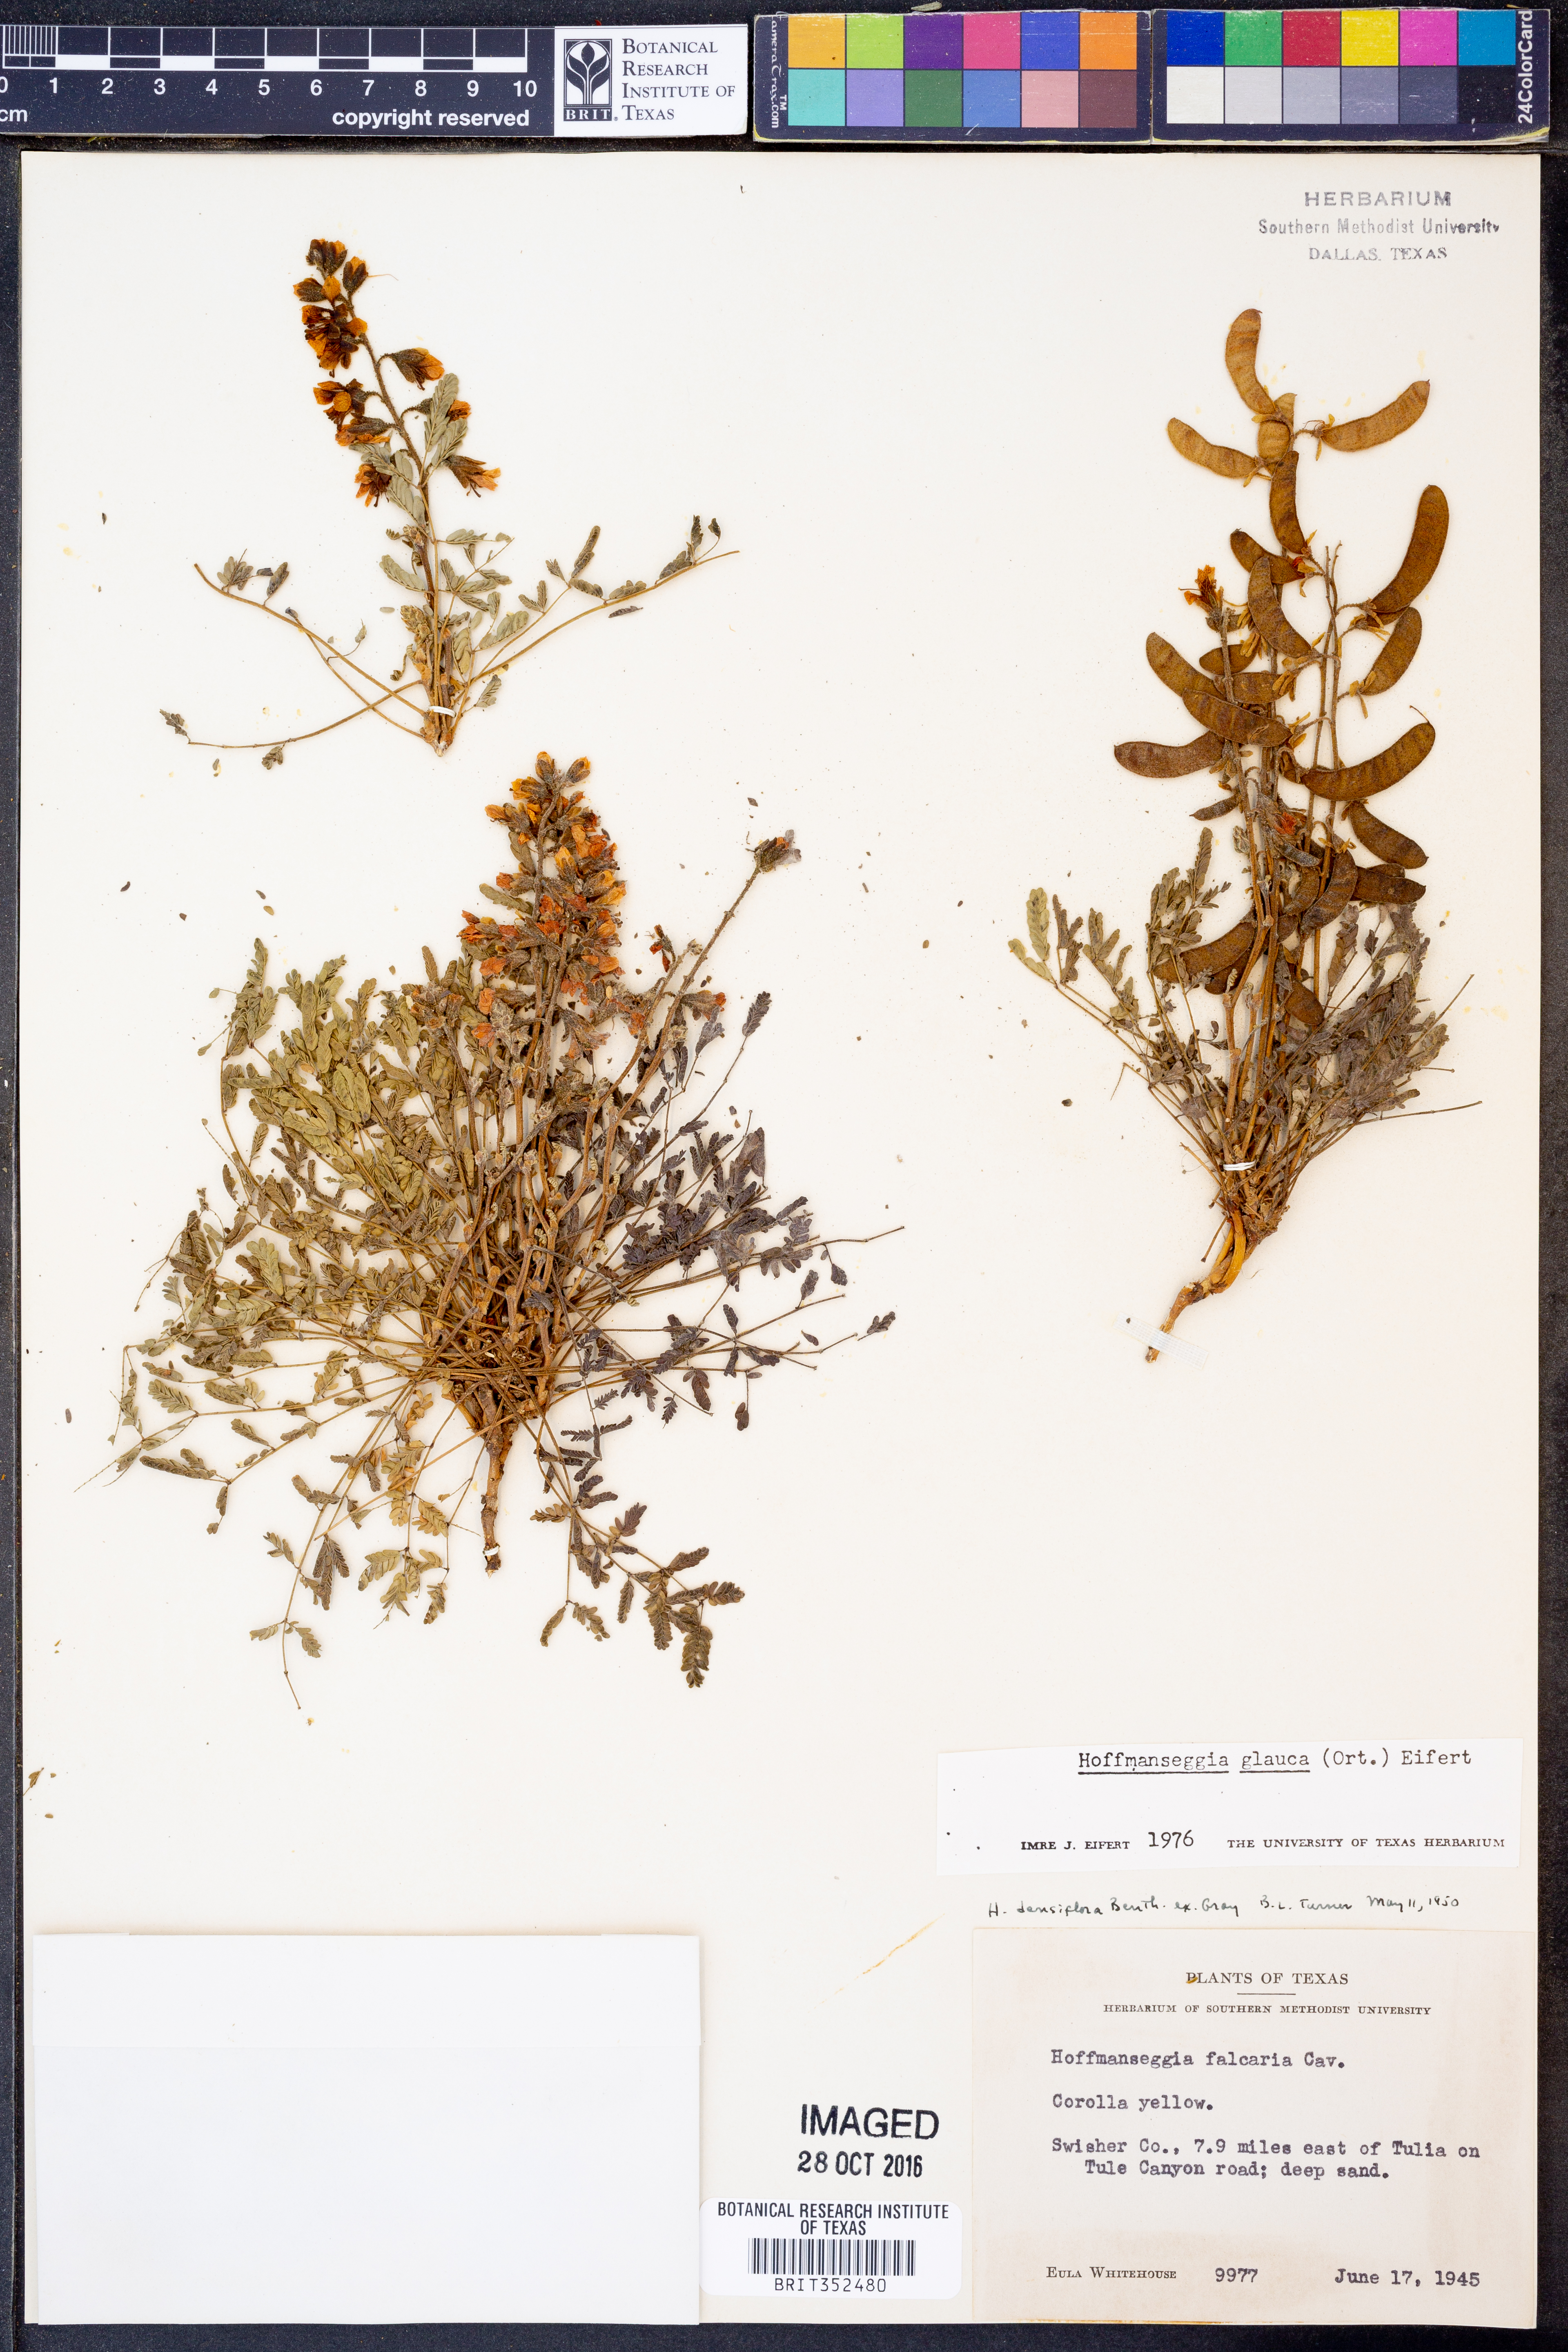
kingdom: Plantae
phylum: Tracheophyta
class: Magnoliopsida
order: Fabales
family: Fabaceae
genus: Hoffmannseggia
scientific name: Hoffmannseggia glauca
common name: Pignut
